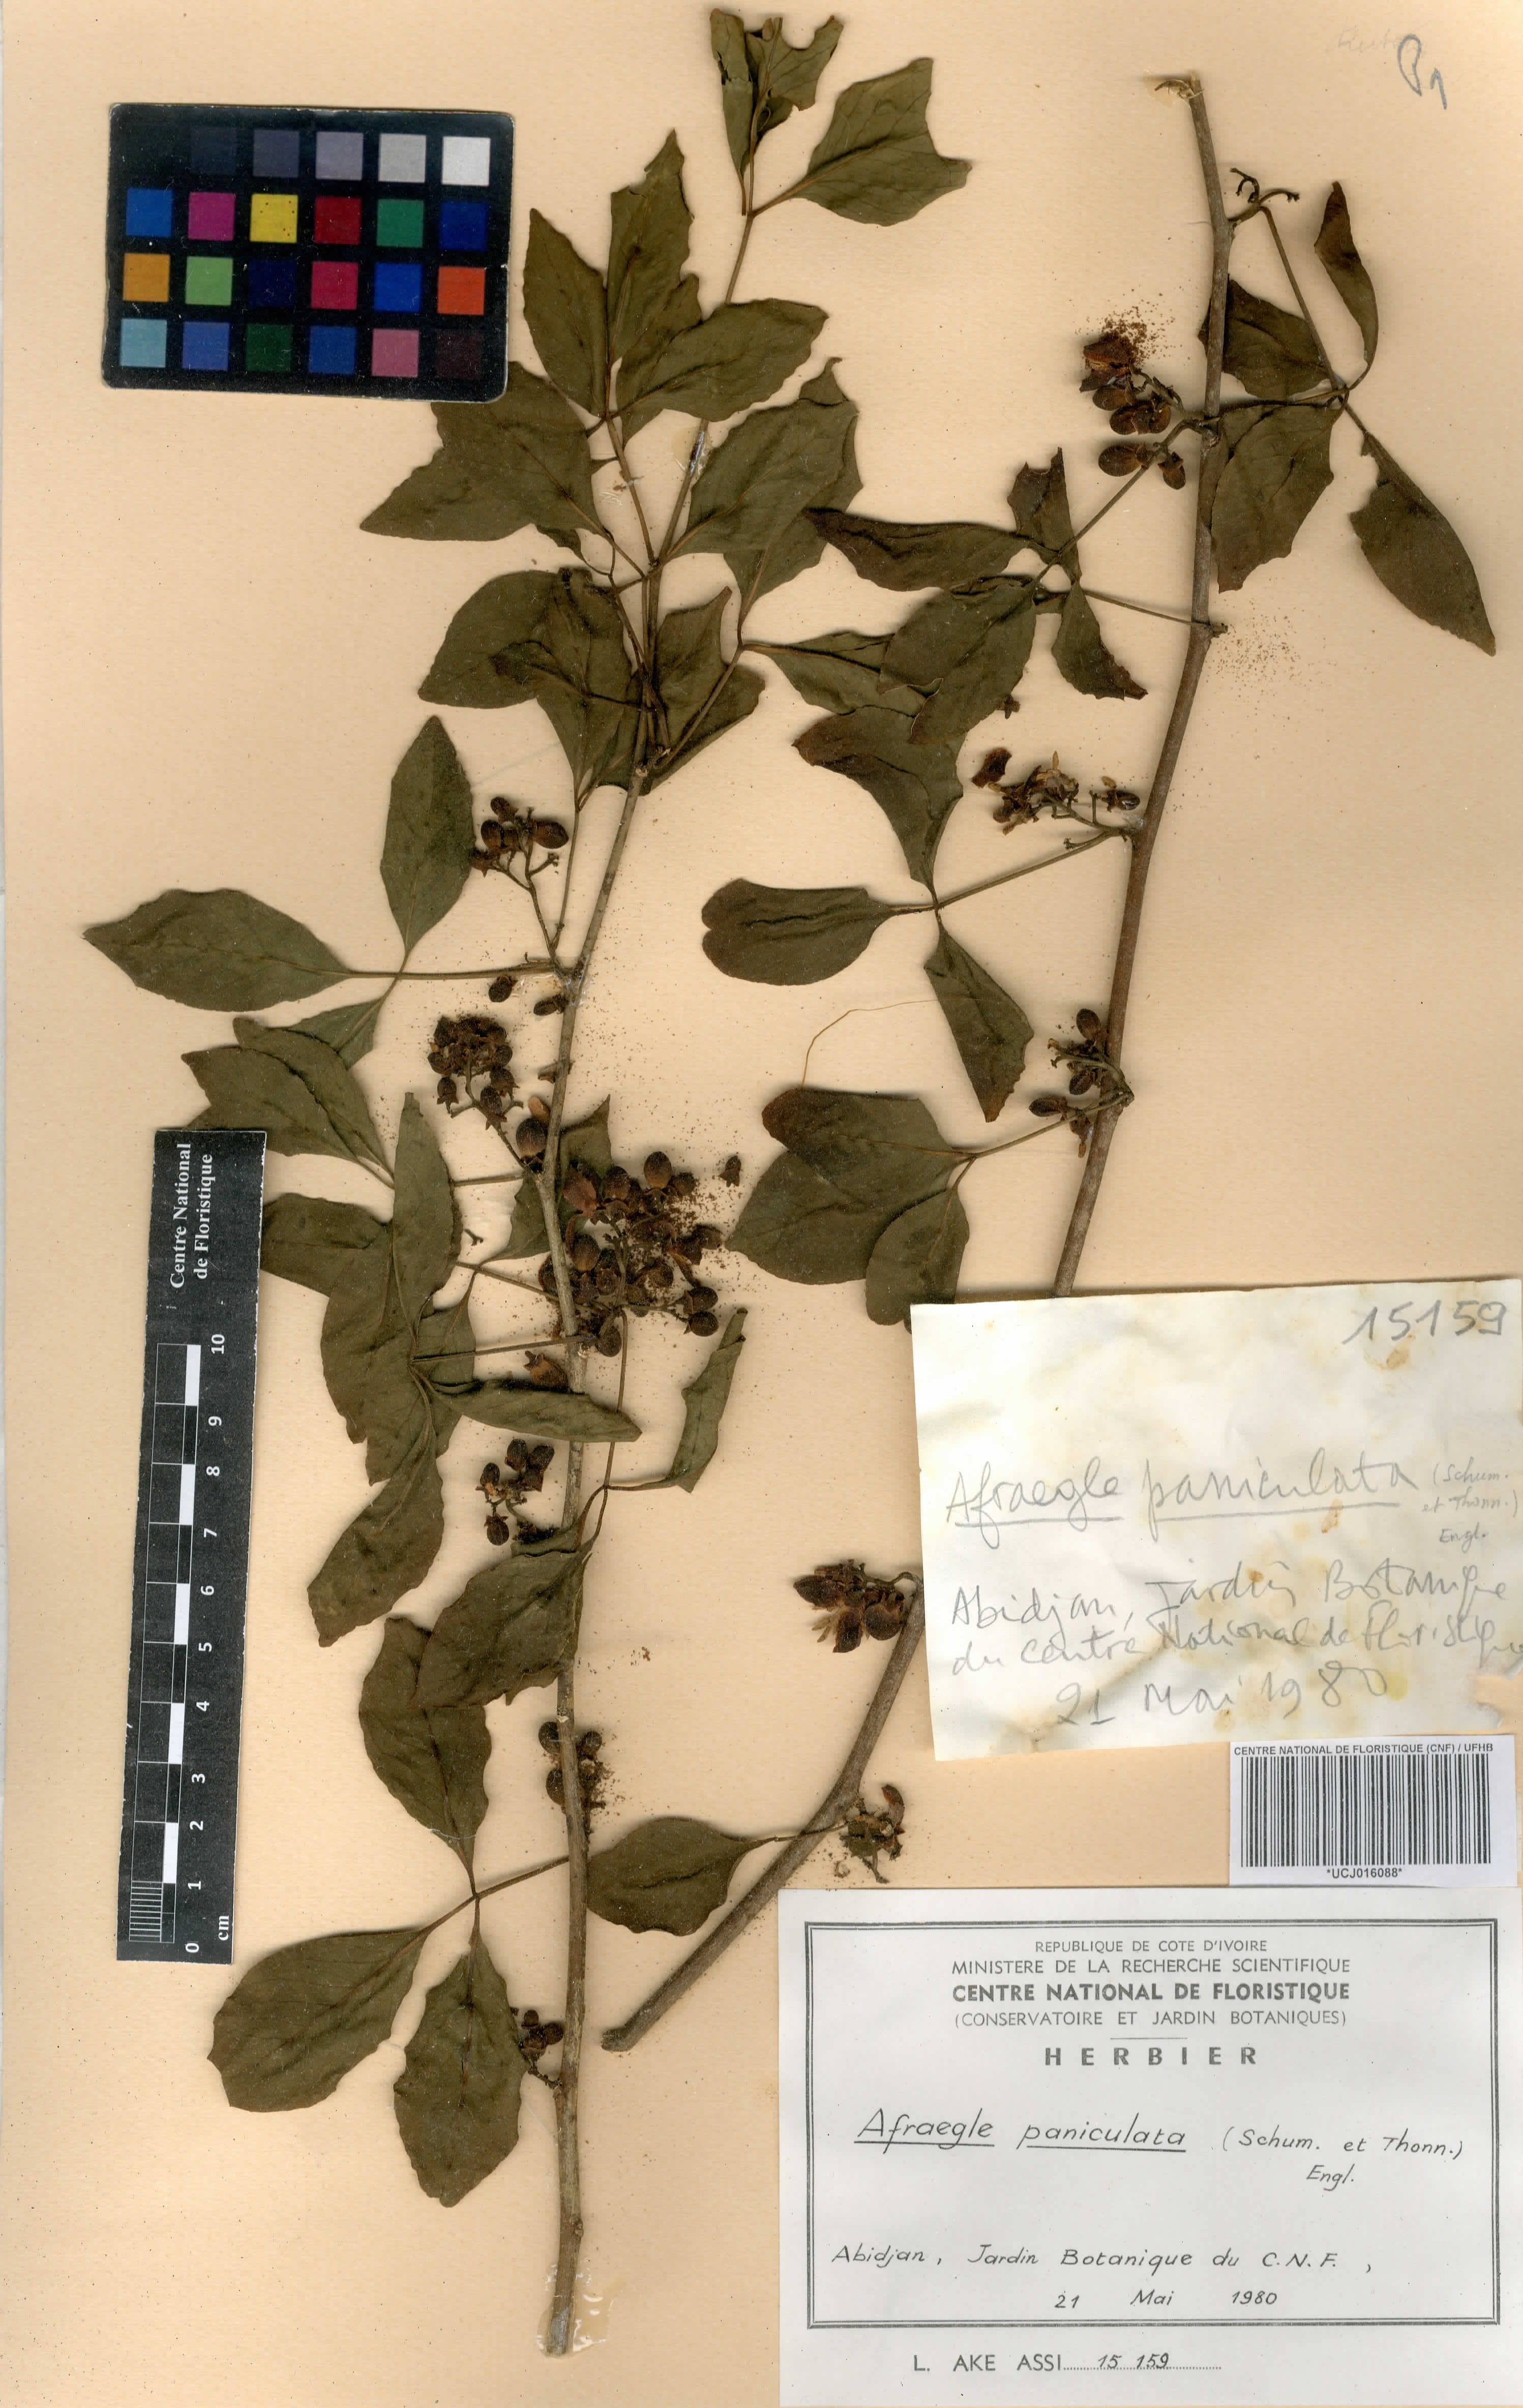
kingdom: Plantae
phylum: Tracheophyta
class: Magnoliopsida
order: Sapindales
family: Rutaceae
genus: Afraegle
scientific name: Afraegle paniculata
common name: Guin-guin
